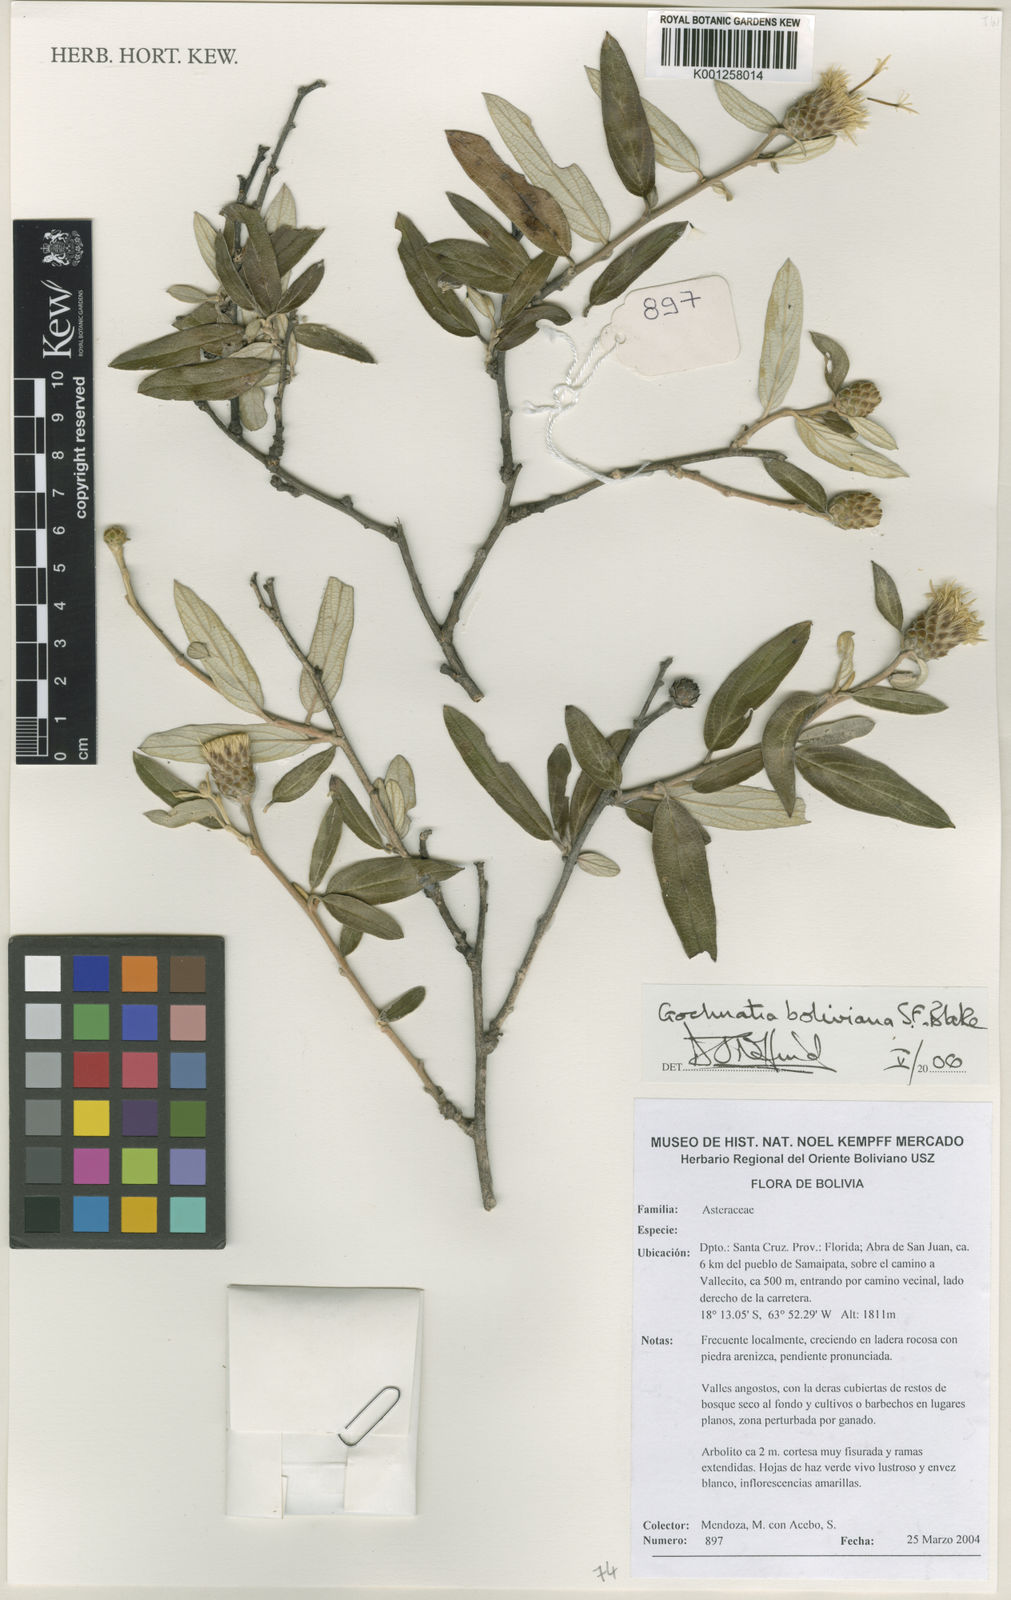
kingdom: Plantae
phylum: Tracheophyta
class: Magnoliopsida
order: Asterales
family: Asteraceae
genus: Gochnatia
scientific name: Gochnatia boliviana
